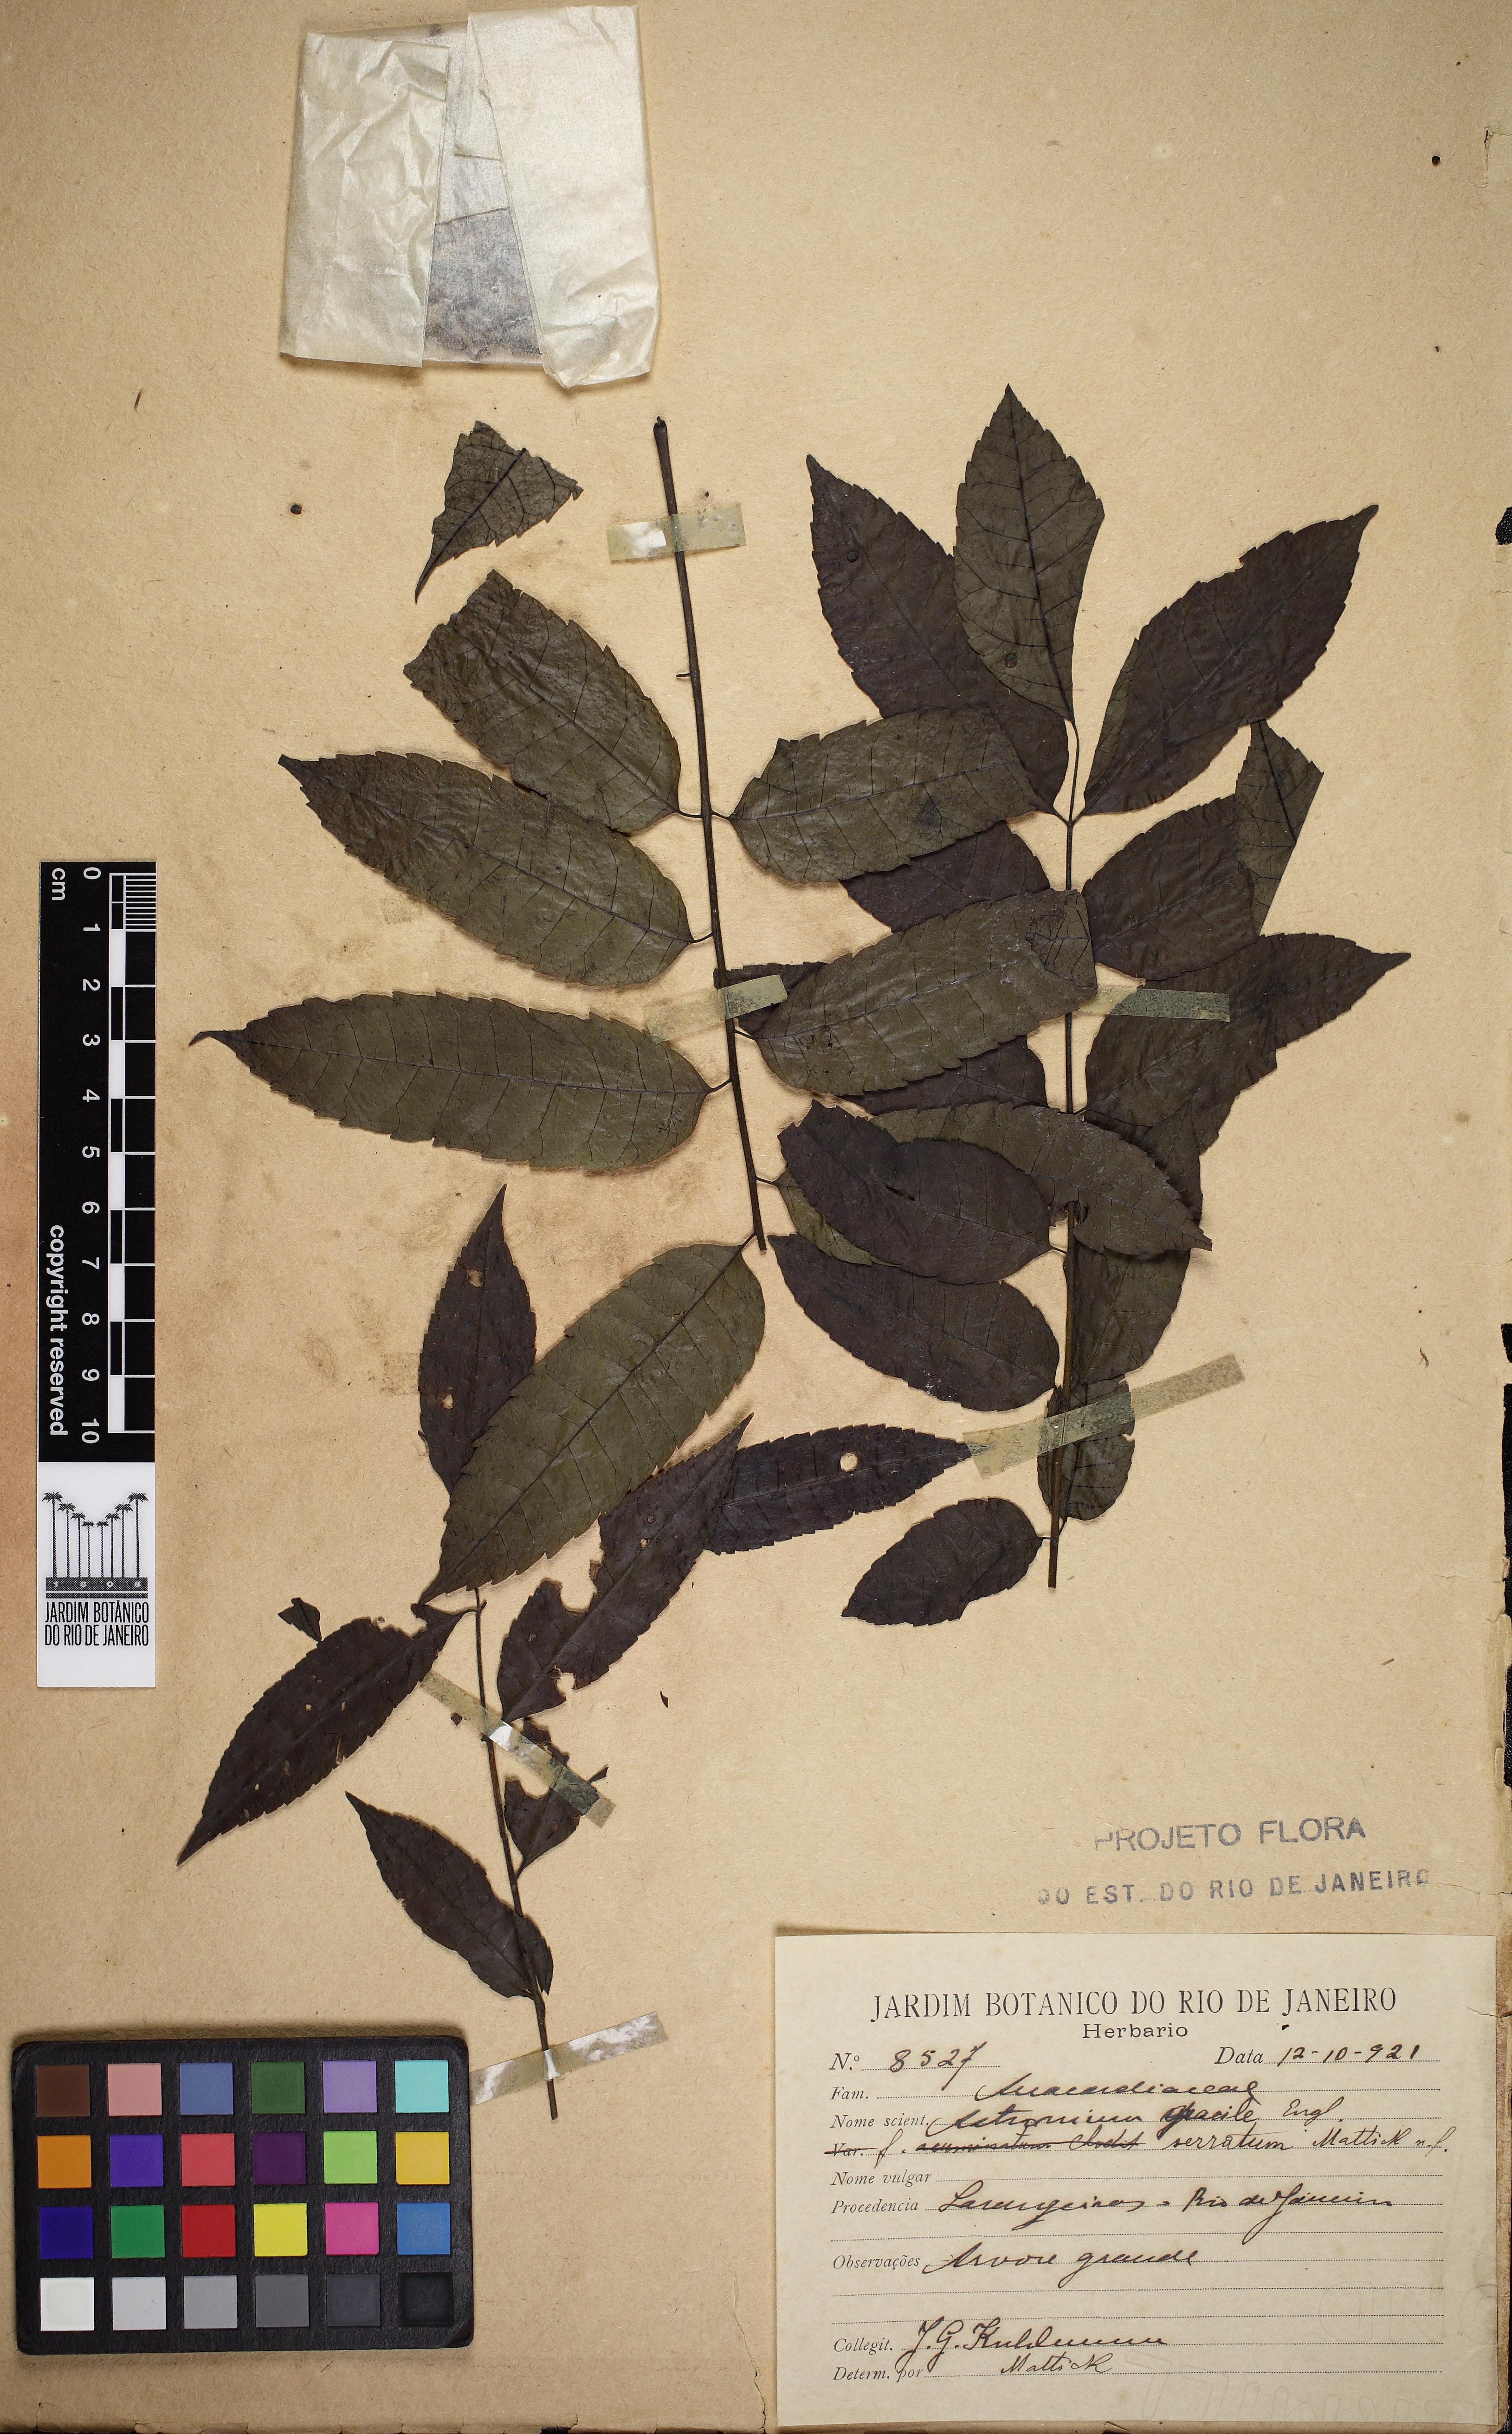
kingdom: Plantae
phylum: Tracheophyta
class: Magnoliopsida
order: Sapindales
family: Anacardiaceae
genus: Astronium
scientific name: Astronium graveolens
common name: Glassywood
